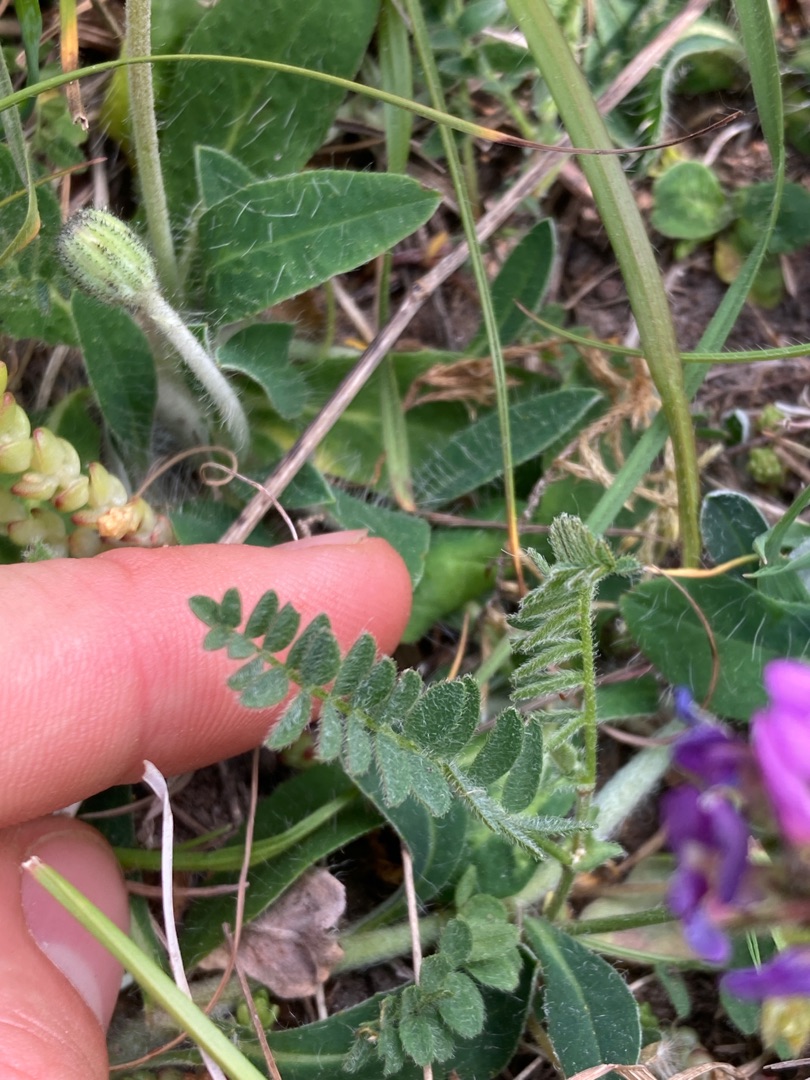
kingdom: Plantae
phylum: Tracheophyta
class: Magnoliopsida
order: Fabales
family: Fabaceae
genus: Astragalus
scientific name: Astragalus danicus
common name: Dansk astragel
